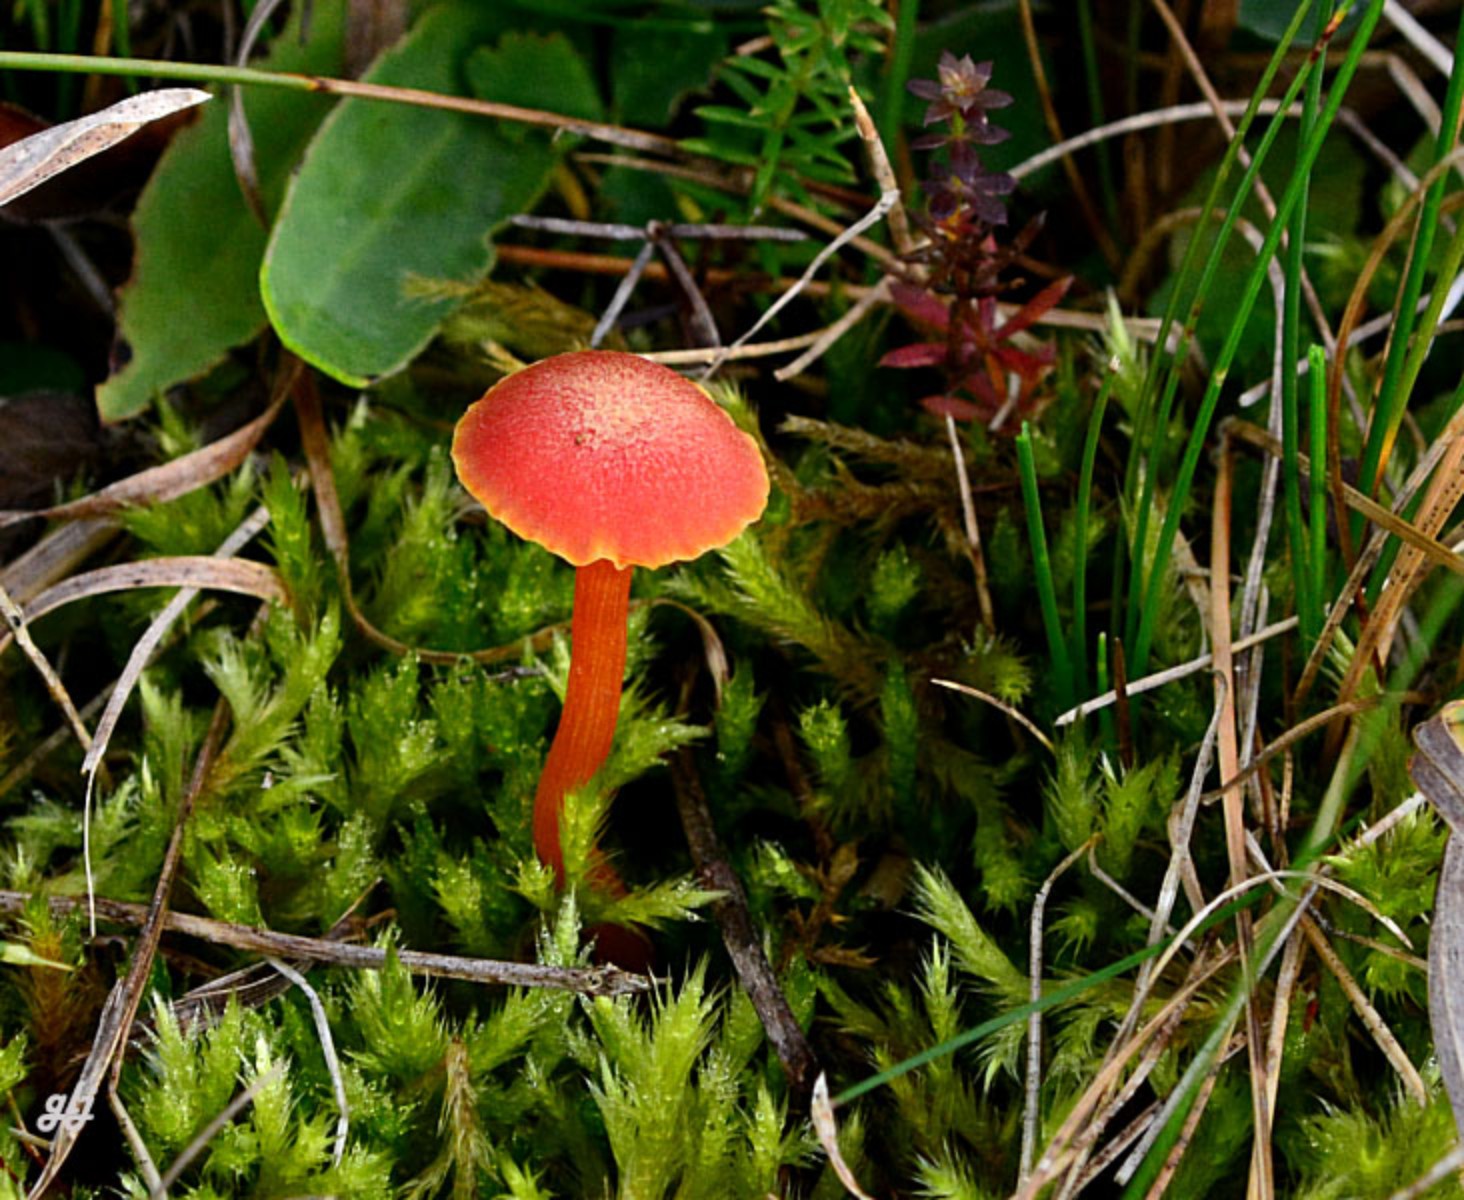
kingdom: Fungi
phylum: Basidiomycota
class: Agaricomycetes
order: Agaricales
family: Hygrophoraceae
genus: Hygrocybe
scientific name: Hygrocybe miniata
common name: mønje-vokshat
